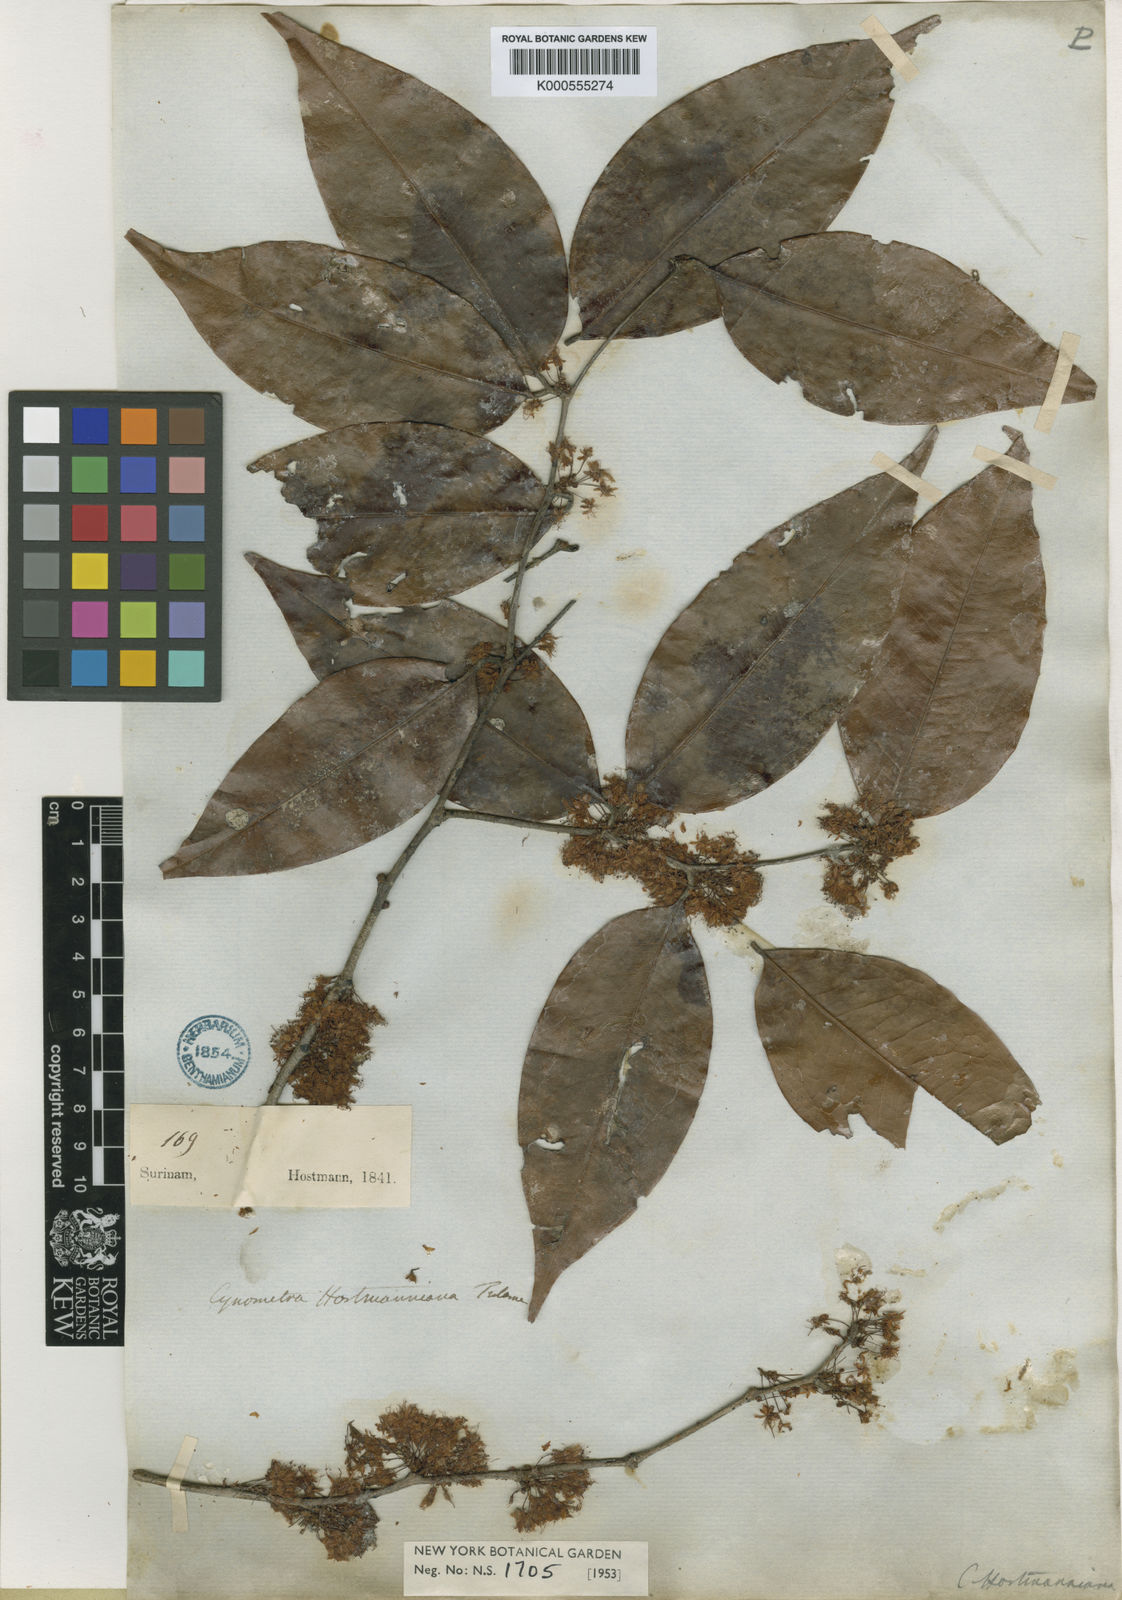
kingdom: Plantae
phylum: Tracheophyta
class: Magnoliopsida
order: Fabales
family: Fabaceae
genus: Cynometra
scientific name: Cynometra hostmanniana
